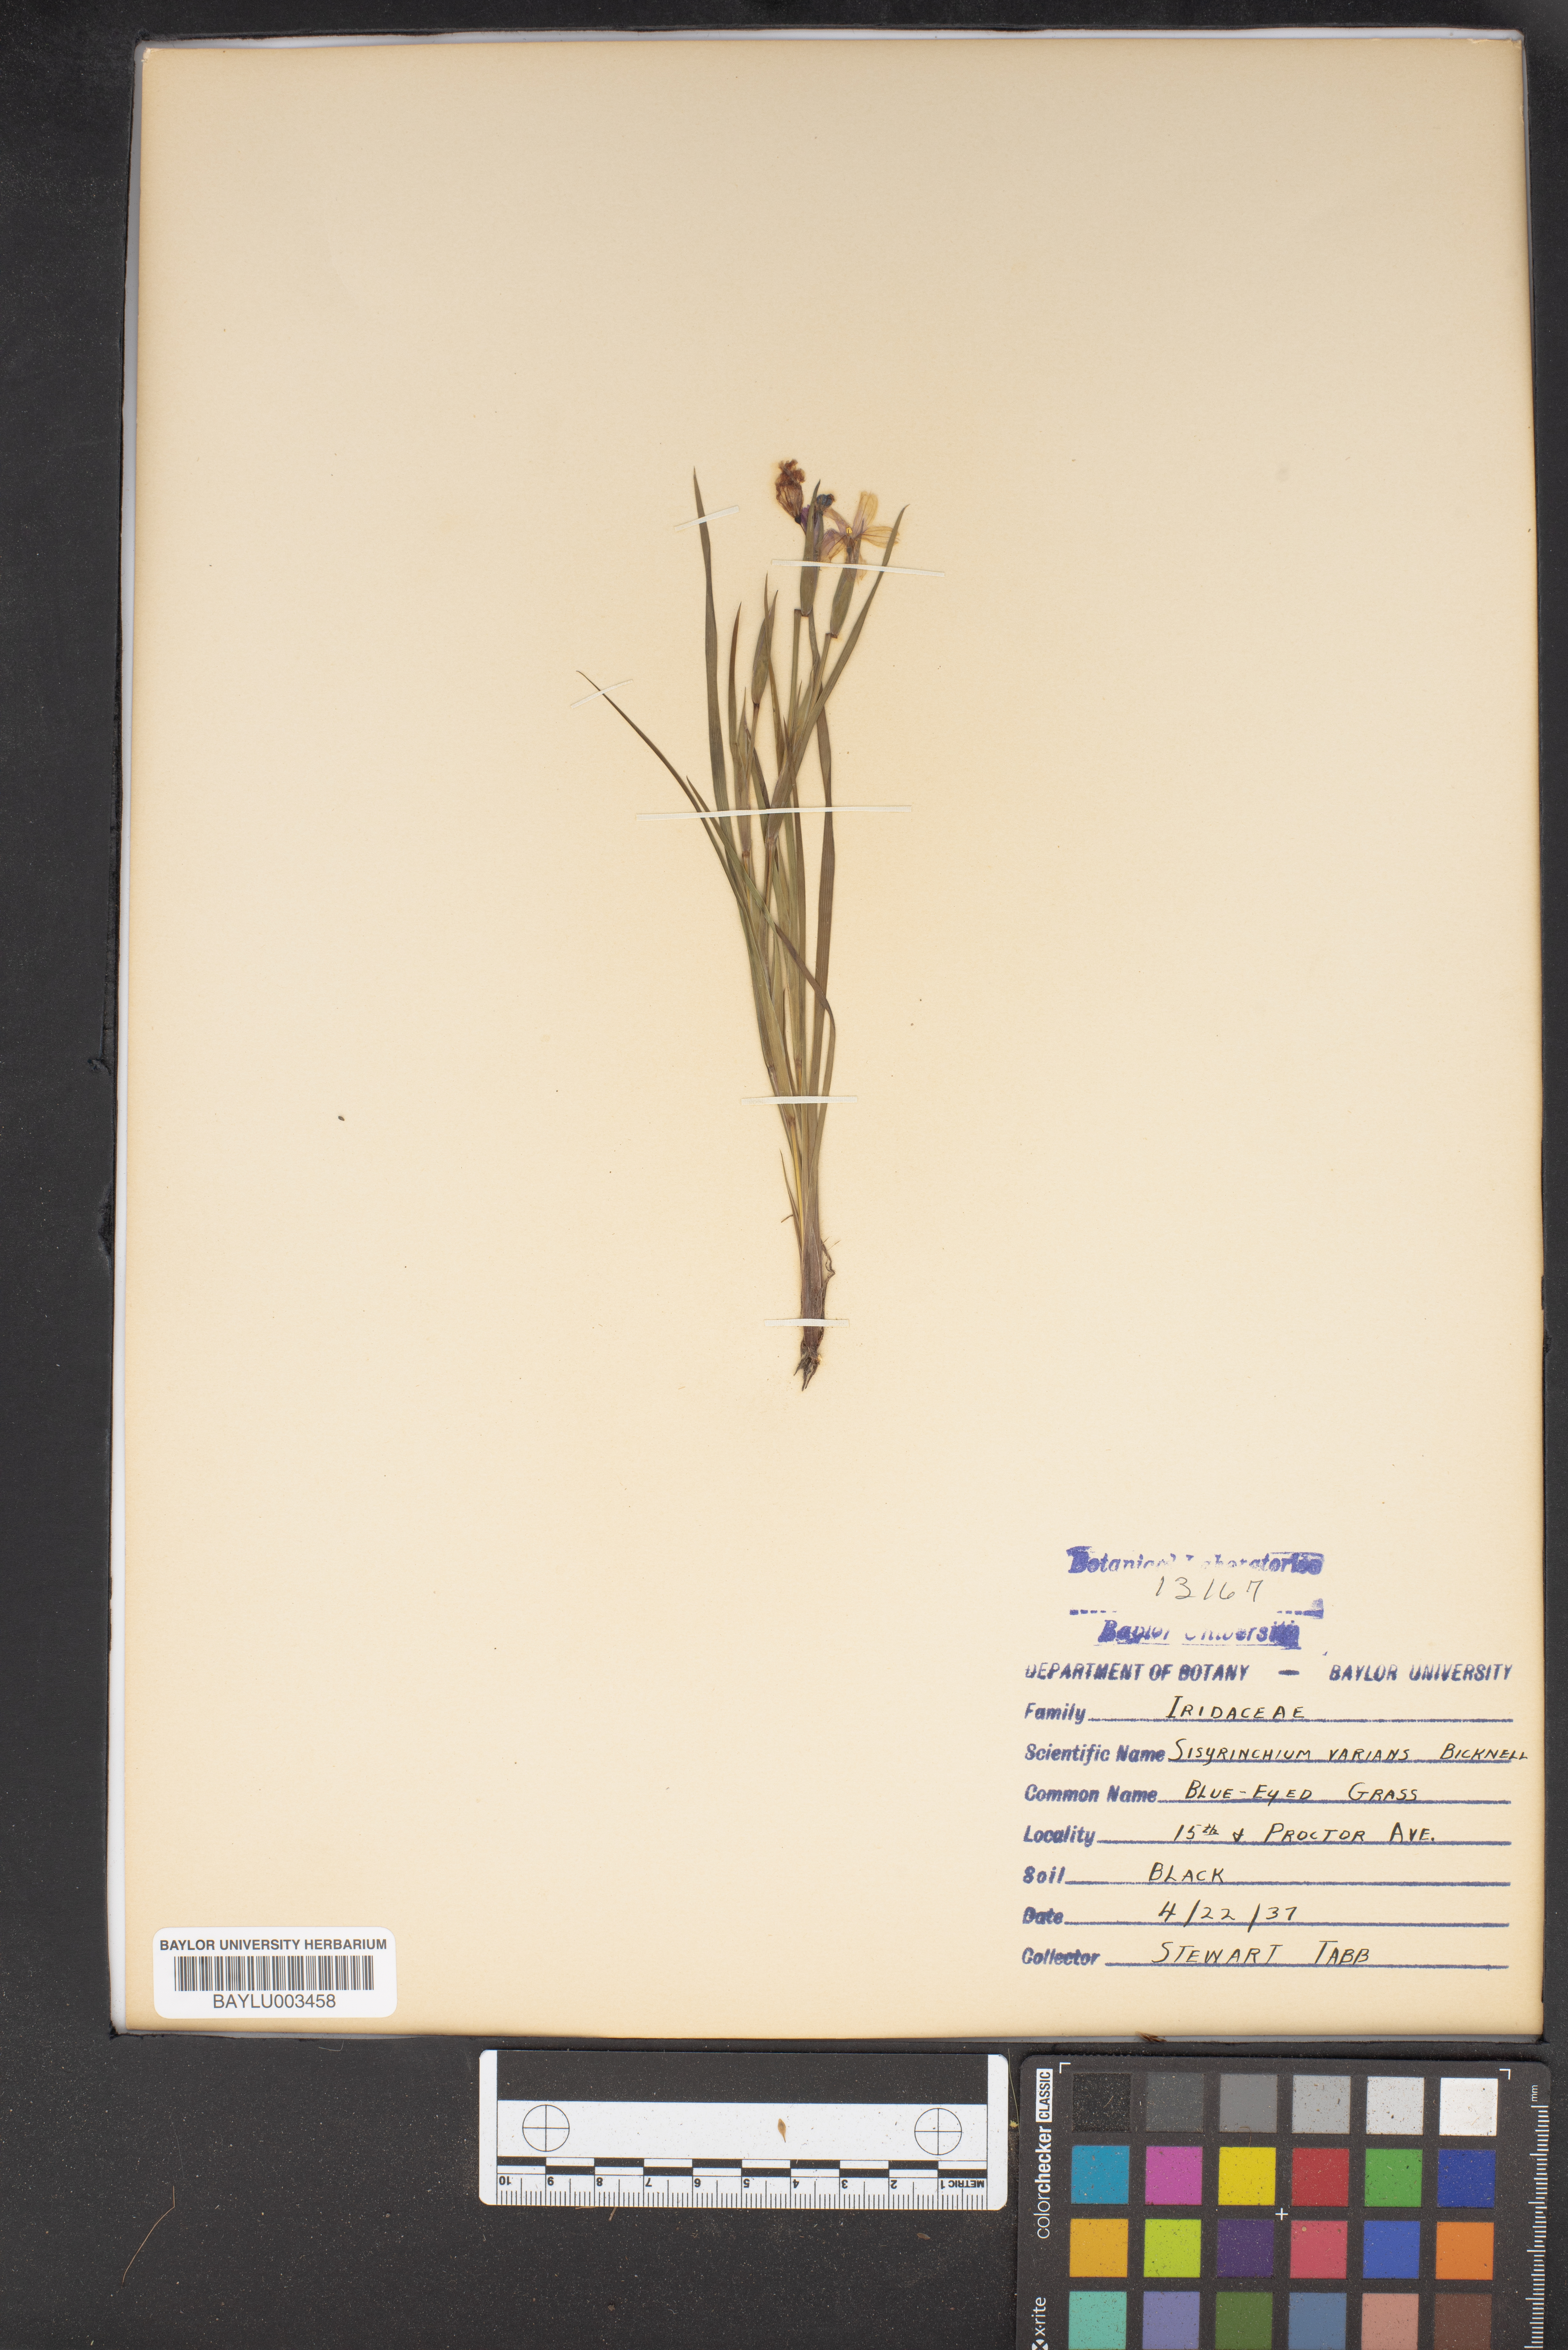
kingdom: Plantae
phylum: Tracheophyta
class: Liliopsida
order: Asparagales
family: Iridaceae
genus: Sisyrinchium
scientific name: Sisyrinchium pruinosum
